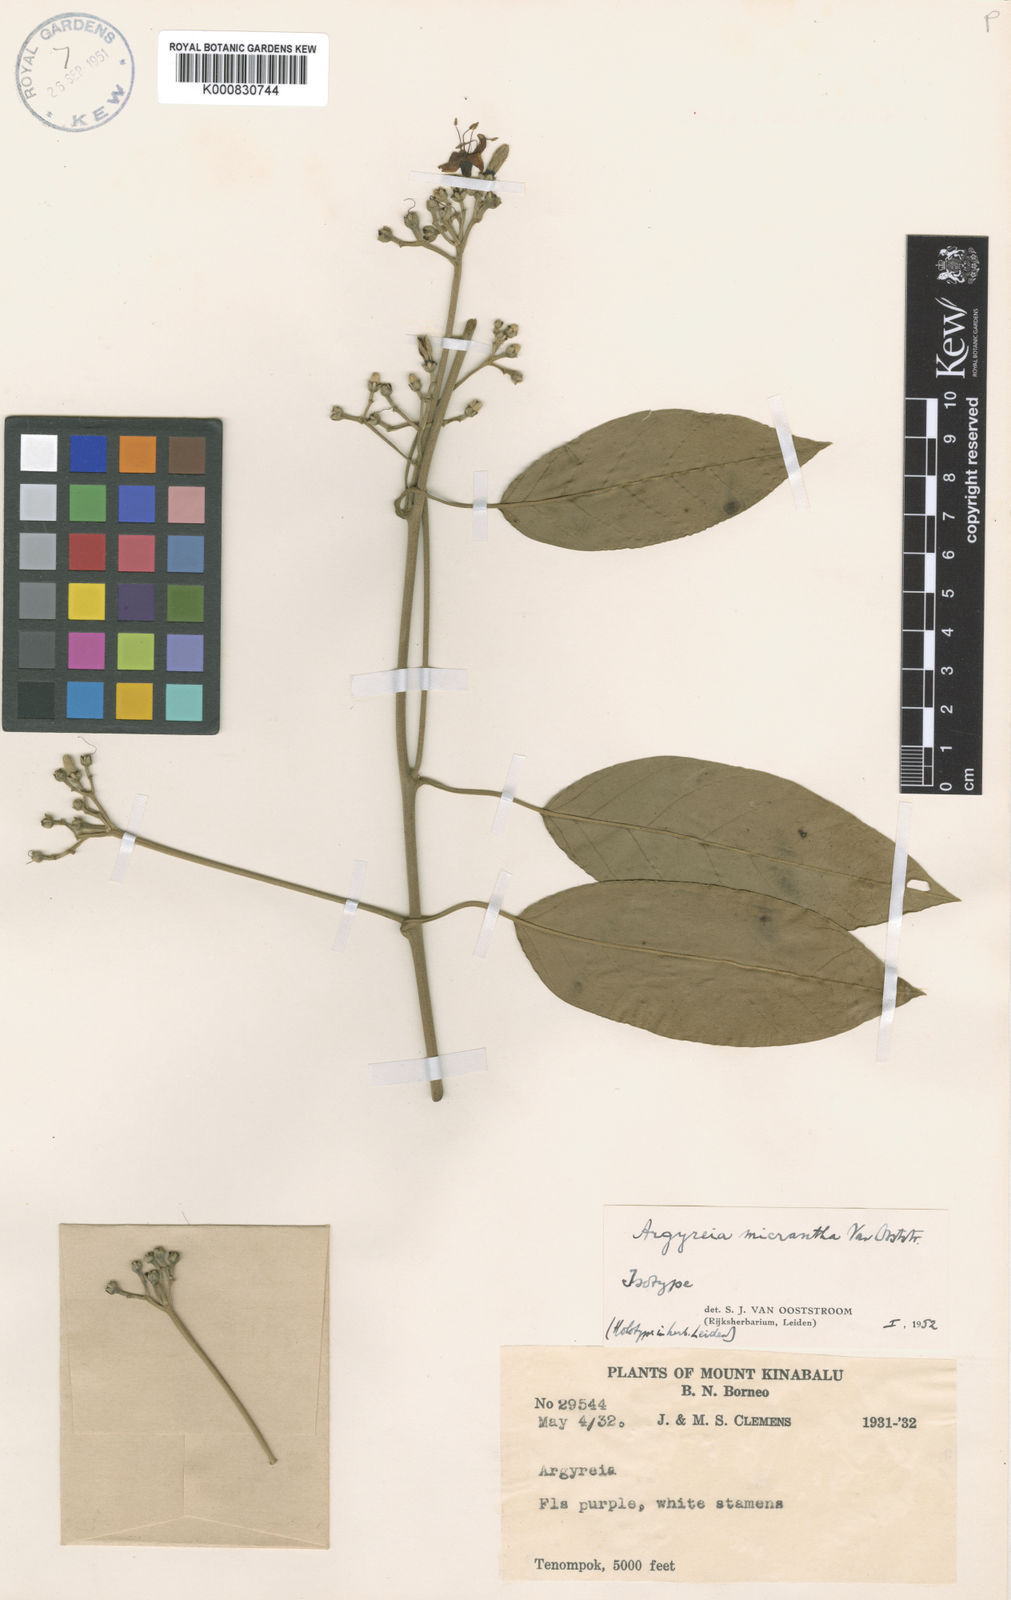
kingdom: Plantae
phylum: Tracheophyta
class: Magnoliopsida
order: Solanales
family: Convolvulaceae
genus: Argyreia
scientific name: Argyreia micrantha
